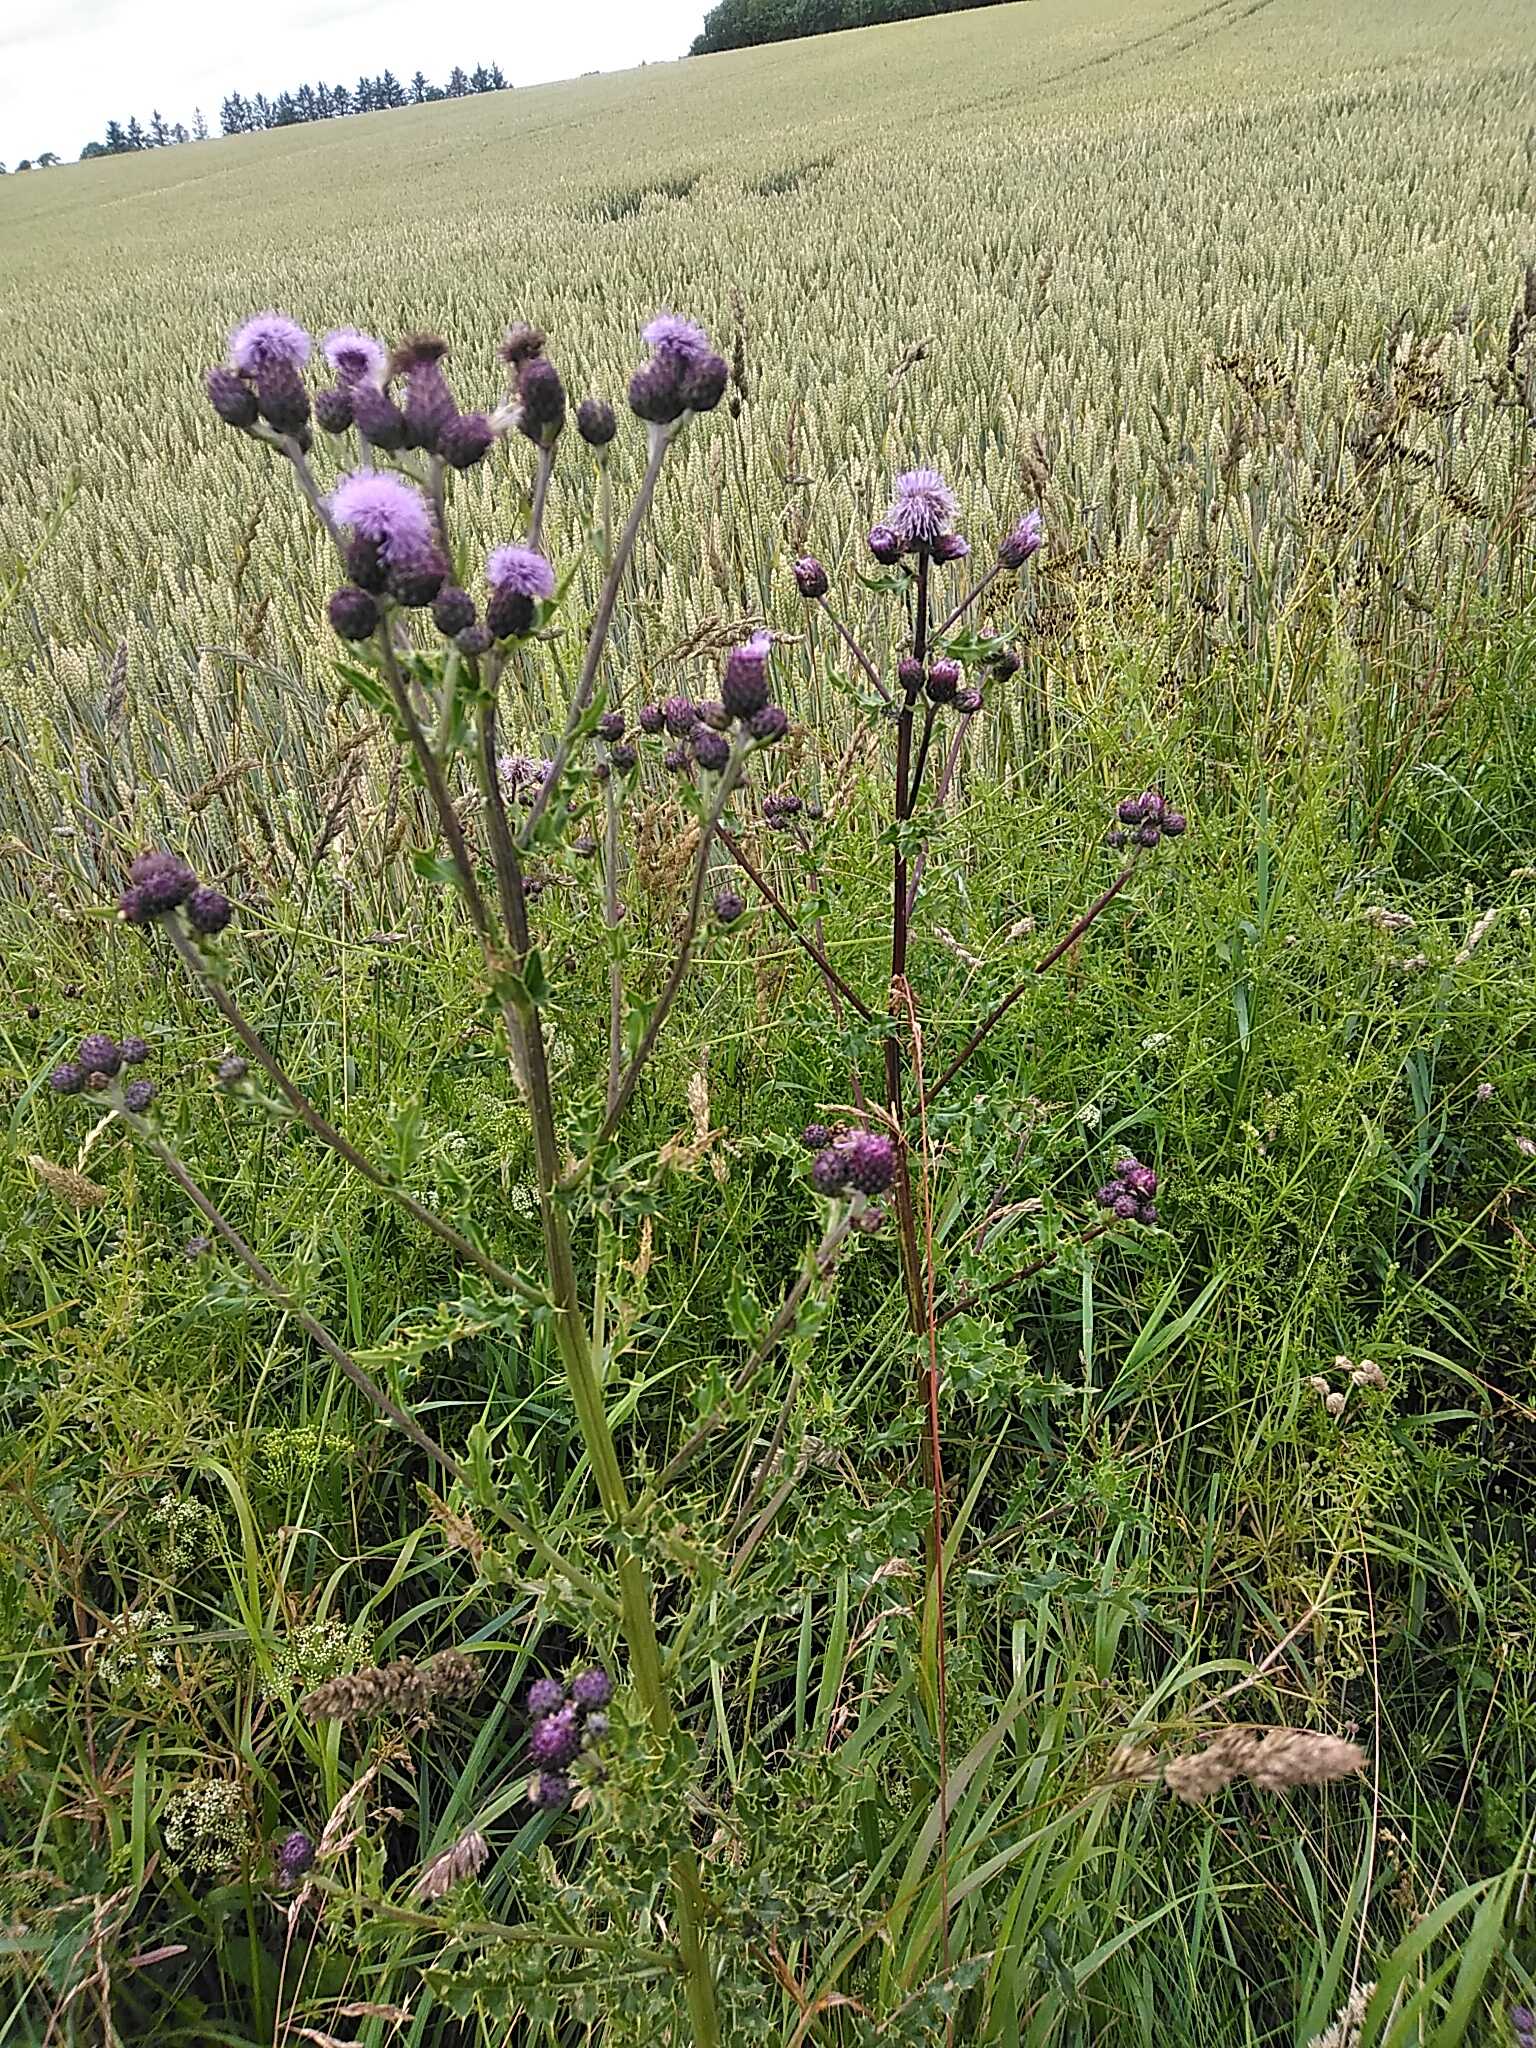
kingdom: Plantae
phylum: Tracheophyta
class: Magnoliopsida
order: Asterales
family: Asteraceae
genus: Cirsium
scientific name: Cirsium arvense
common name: Ager-tidsel
